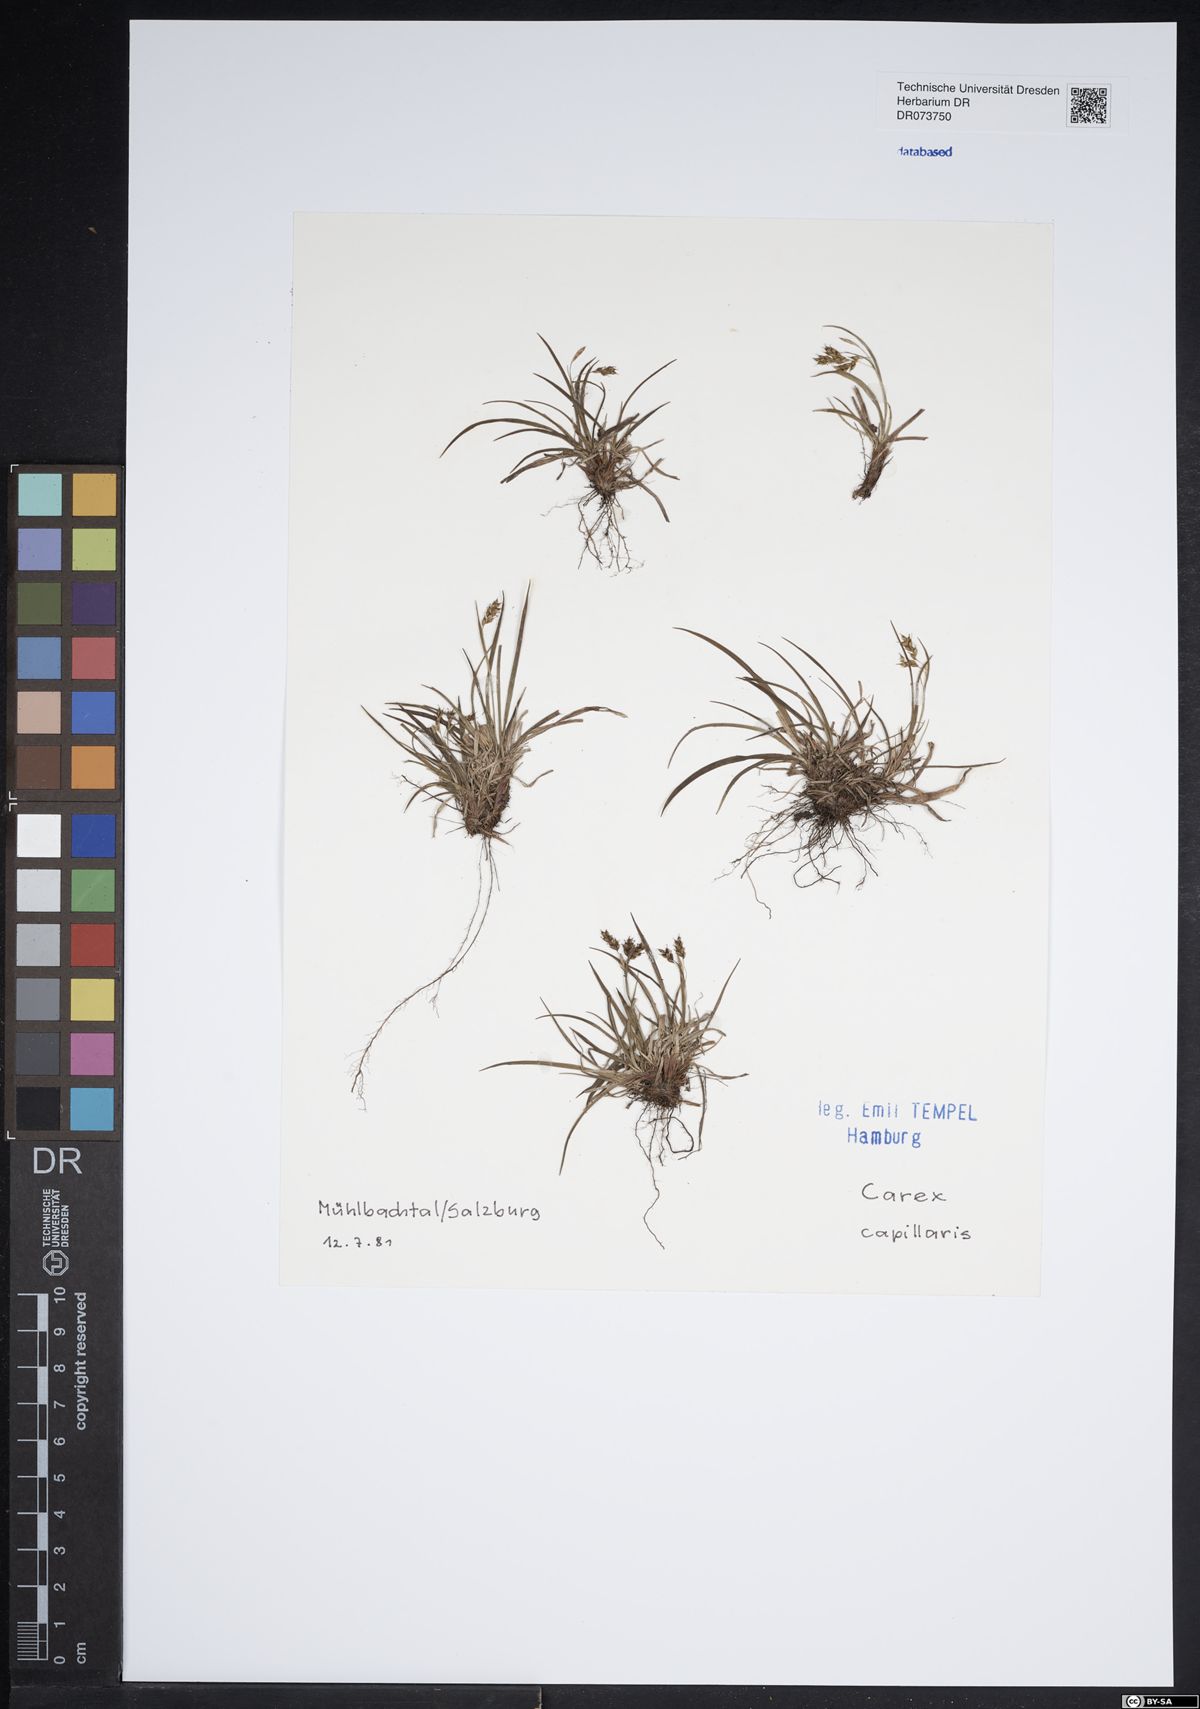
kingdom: Plantae
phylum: Tracheophyta
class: Liliopsida
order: Poales
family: Cyperaceae
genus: Carex
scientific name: Carex capillaris
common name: Hair sedge
